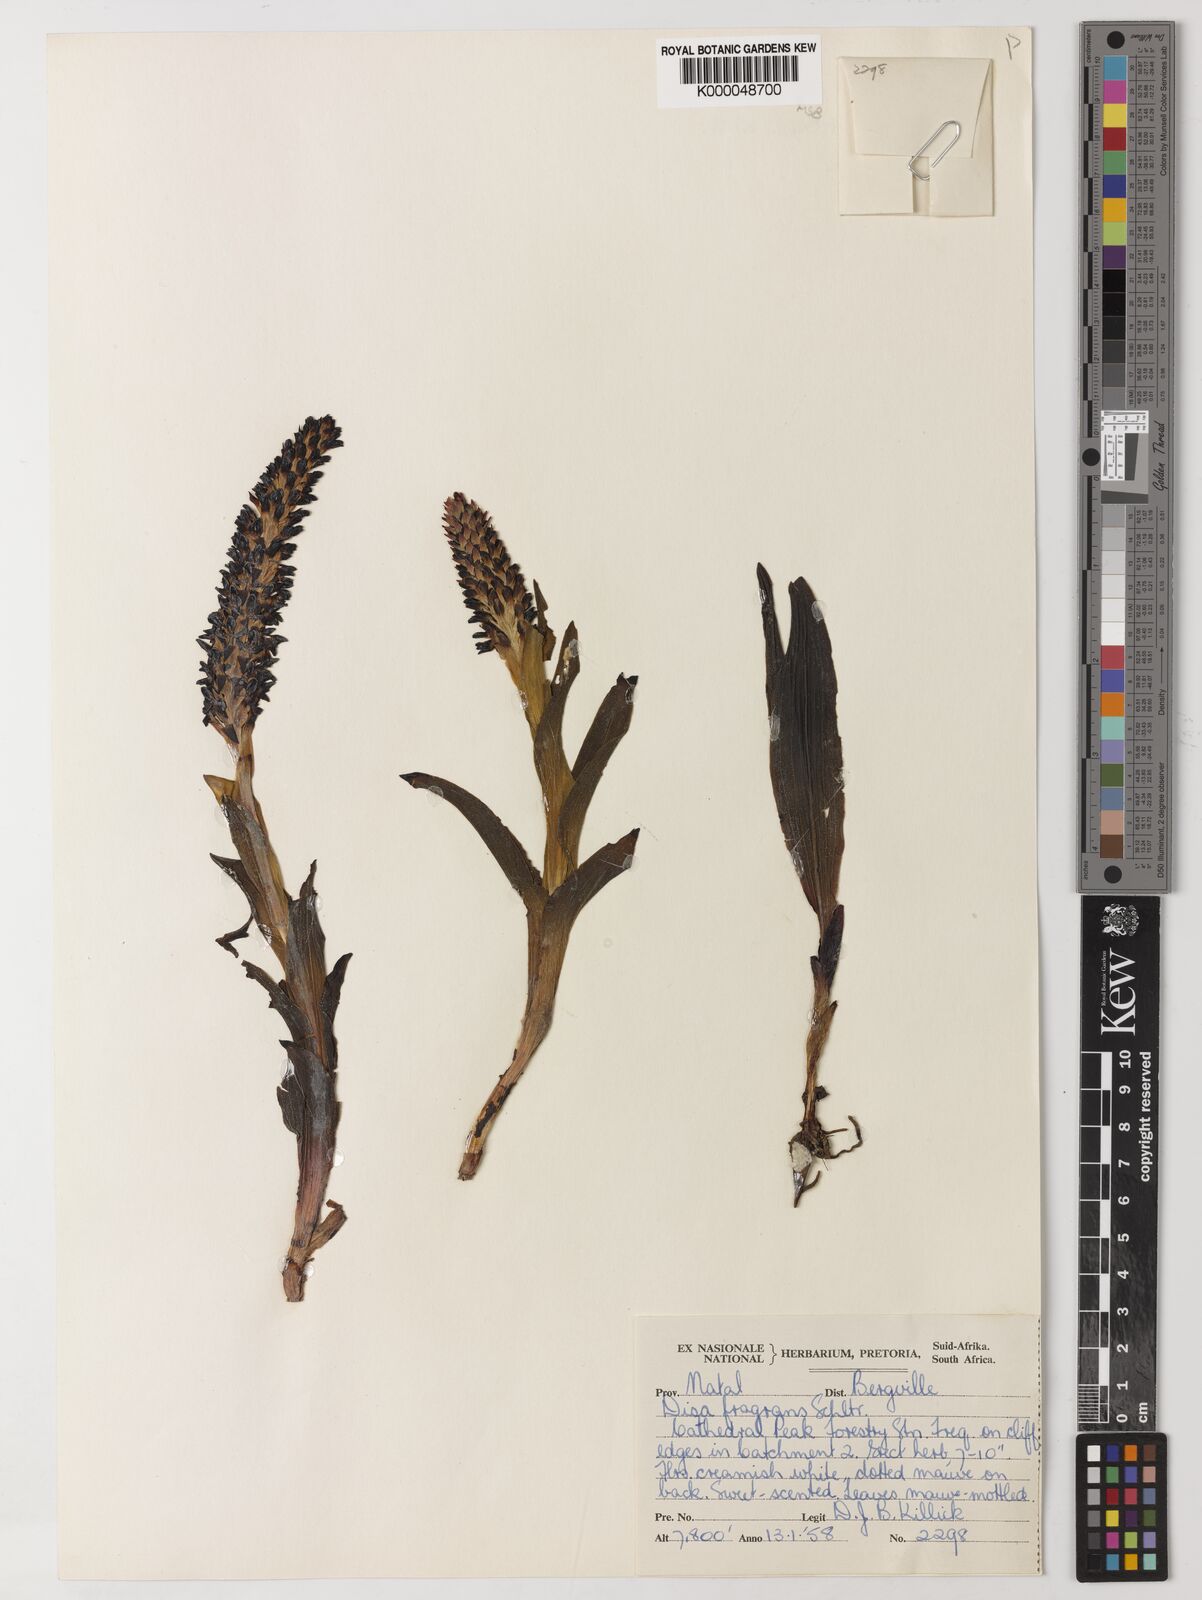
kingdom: Plantae
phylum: Tracheophyta
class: Liliopsida
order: Asparagales
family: Orchidaceae
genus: Disa
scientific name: Disa fragrans
